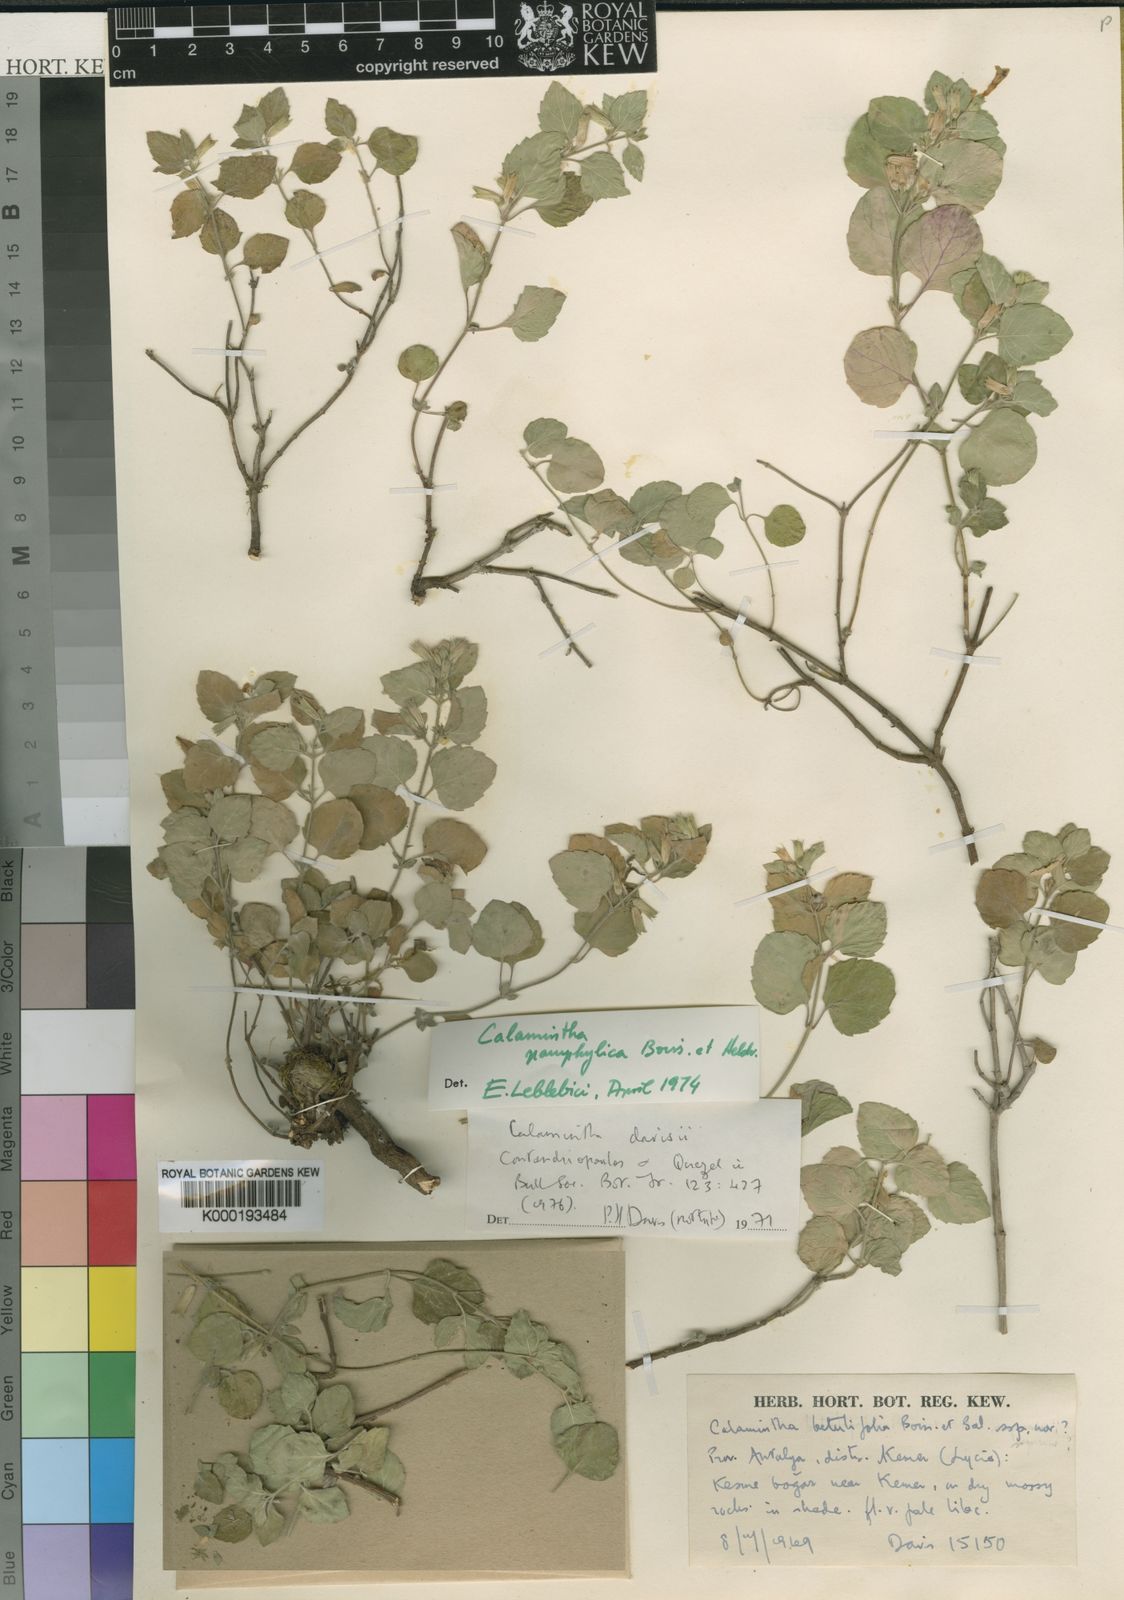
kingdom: Plantae
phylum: Tracheophyta
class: Magnoliopsida
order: Lamiales
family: Lamiaceae
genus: Clinopodium
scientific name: Clinopodium pamphylicum
